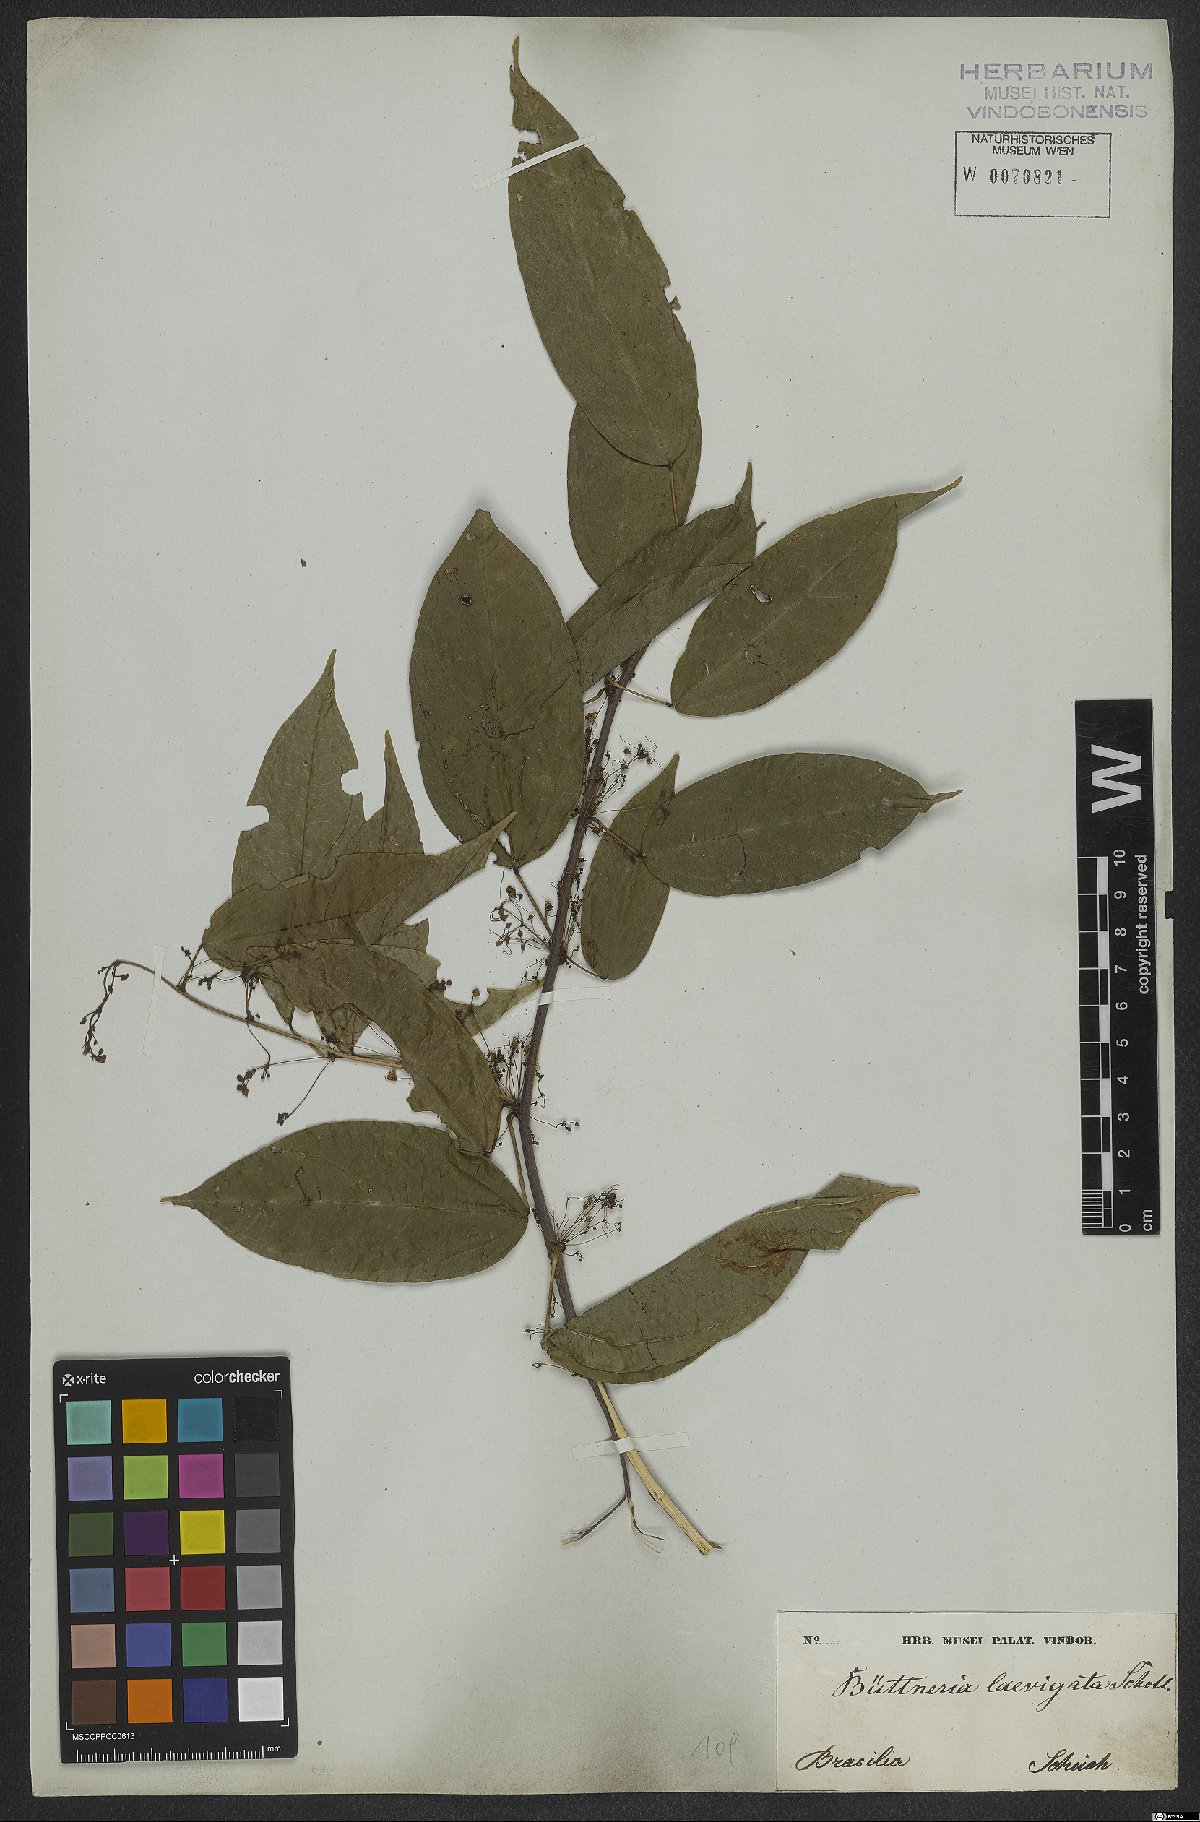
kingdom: Plantae
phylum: Tracheophyta
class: Magnoliopsida
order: Malvales
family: Malvaceae
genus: Byttneria
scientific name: Byttneria gayana
